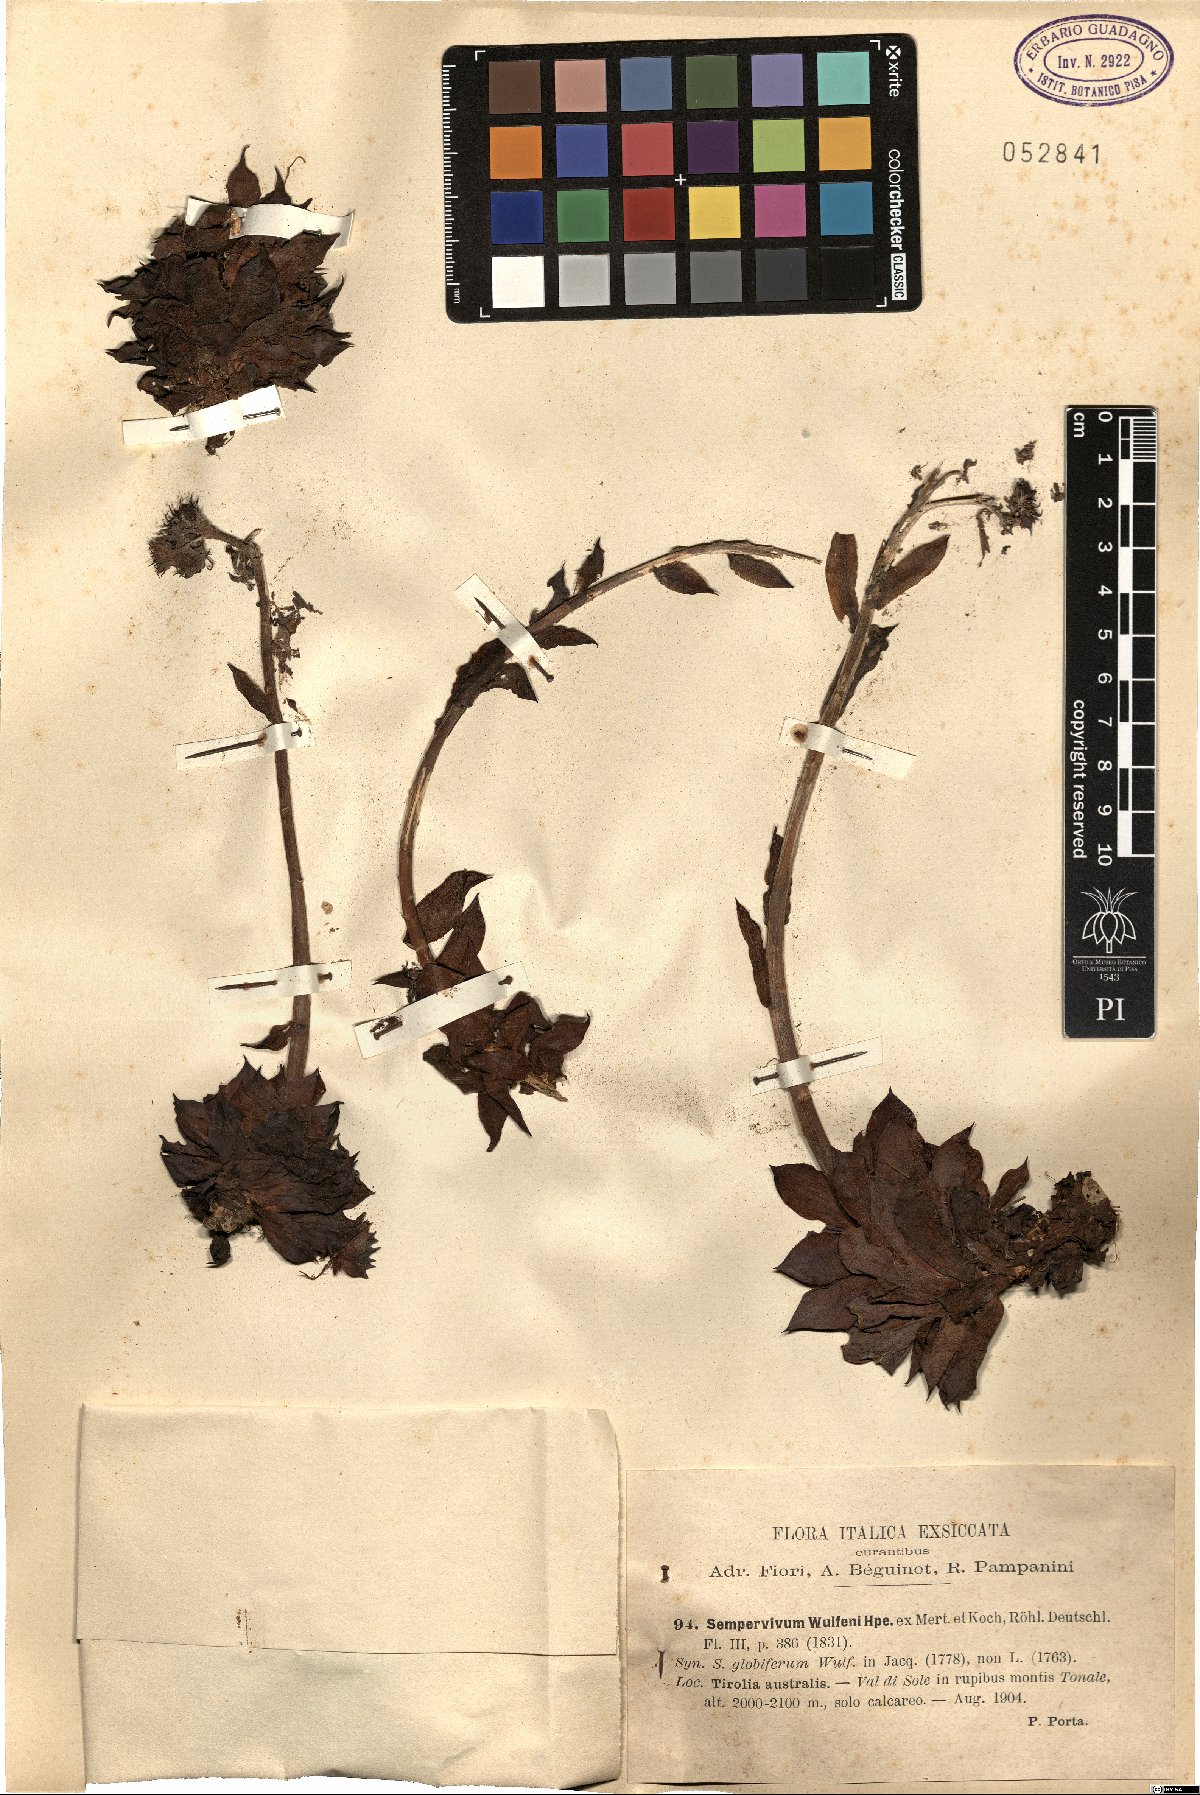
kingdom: Plantae
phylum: Tracheophyta
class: Magnoliopsida
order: Saxifragales
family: Crassulaceae
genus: Sempervivum
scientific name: Sempervivum wulfenii
